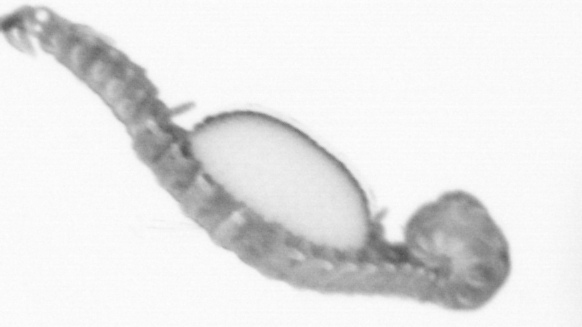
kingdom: Animalia
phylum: Annelida
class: Polychaeta
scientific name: Polychaeta
